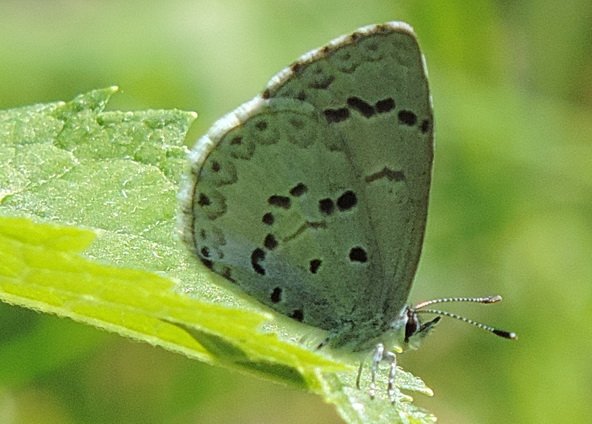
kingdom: Animalia
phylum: Arthropoda
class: Insecta
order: Lepidoptera
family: Lycaenidae
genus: Celastrina
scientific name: Celastrina lucia
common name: Northern Spring Azure
